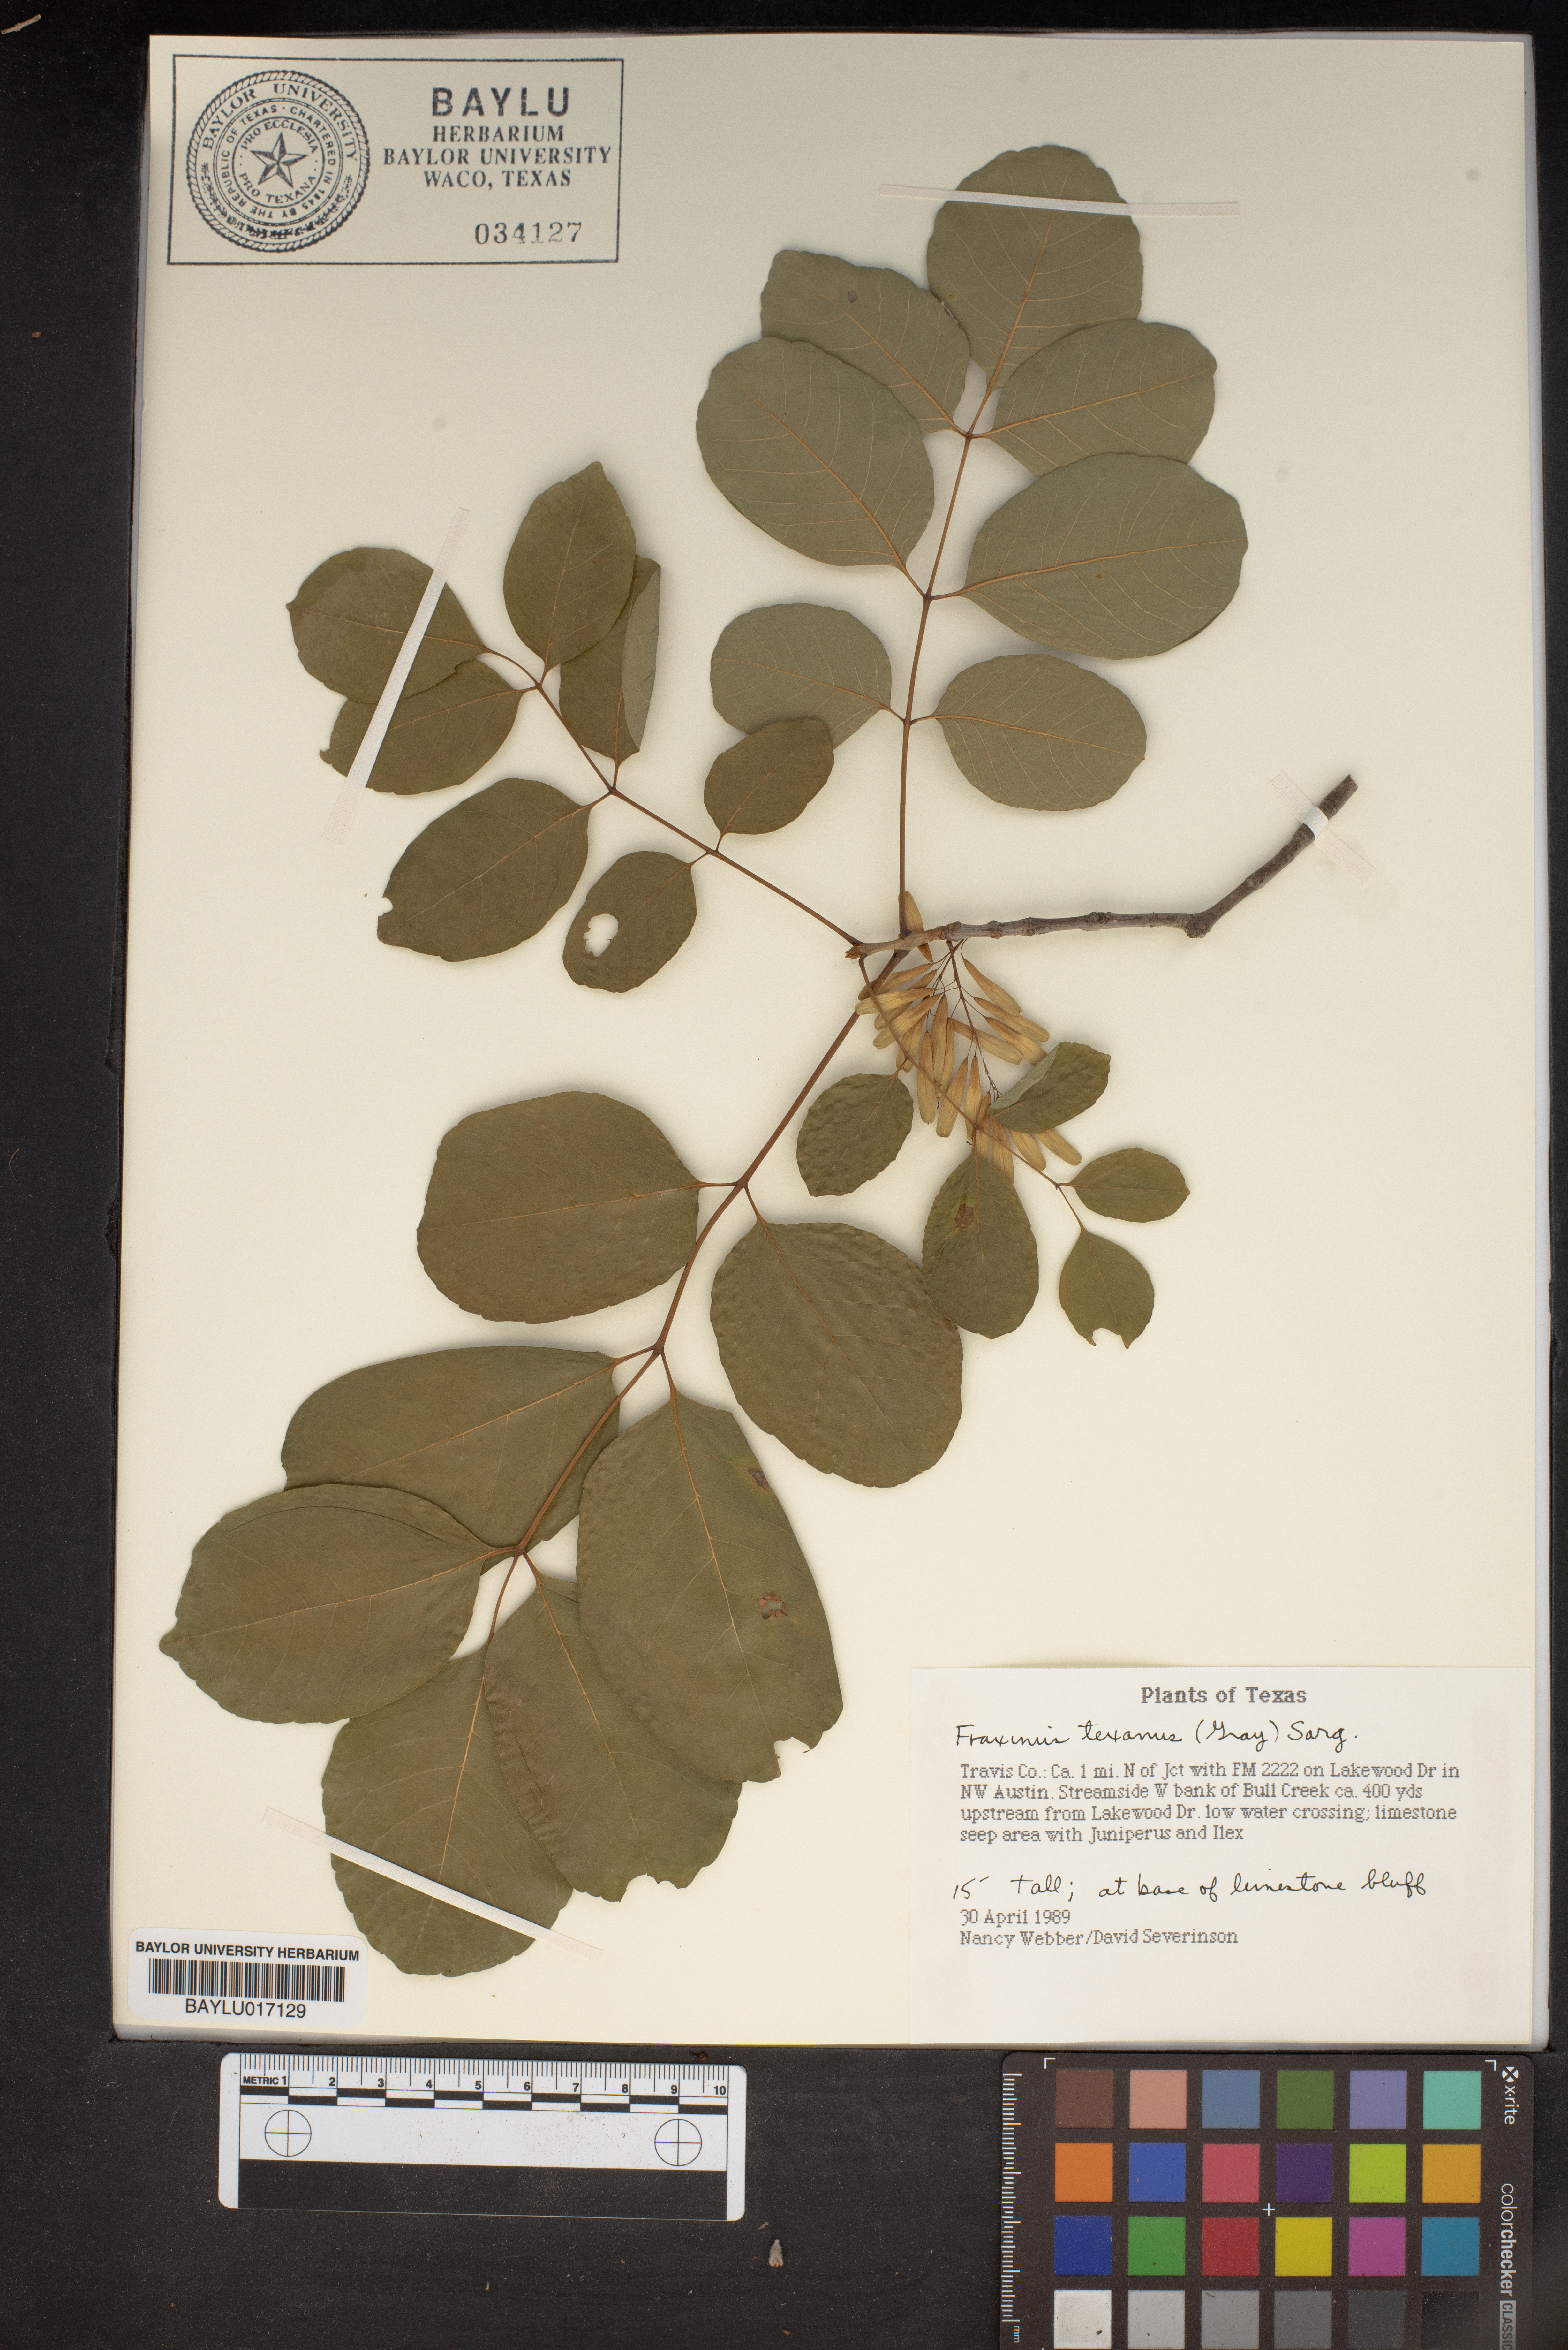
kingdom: Plantae
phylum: Tracheophyta
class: Magnoliopsida
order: Lamiales
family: Oleaceae
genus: Fraxinus
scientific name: Fraxinus albicans
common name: Texas ash
